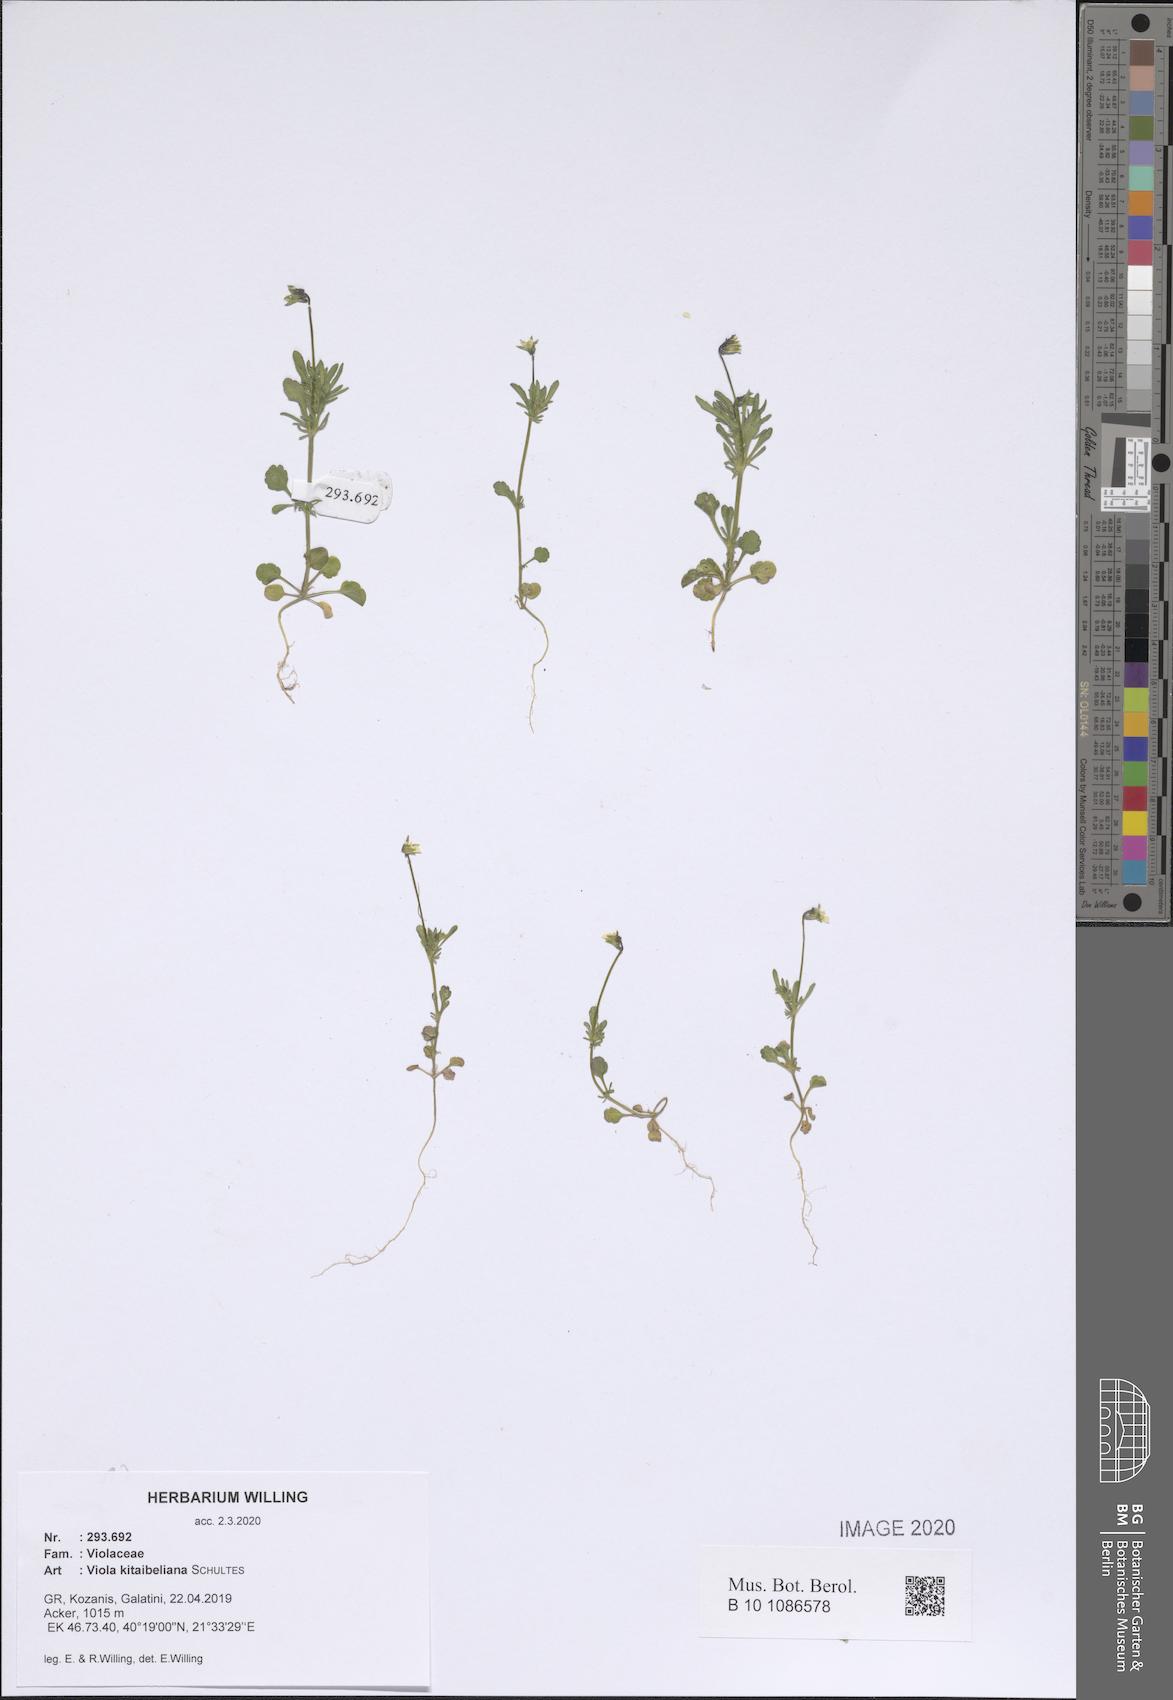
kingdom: Plantae
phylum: Tracheophyta
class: Magnoliopsida
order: Malpighiales
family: Violaceae
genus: Viola
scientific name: Viola kitaibeliana
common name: Dwarf pansy
